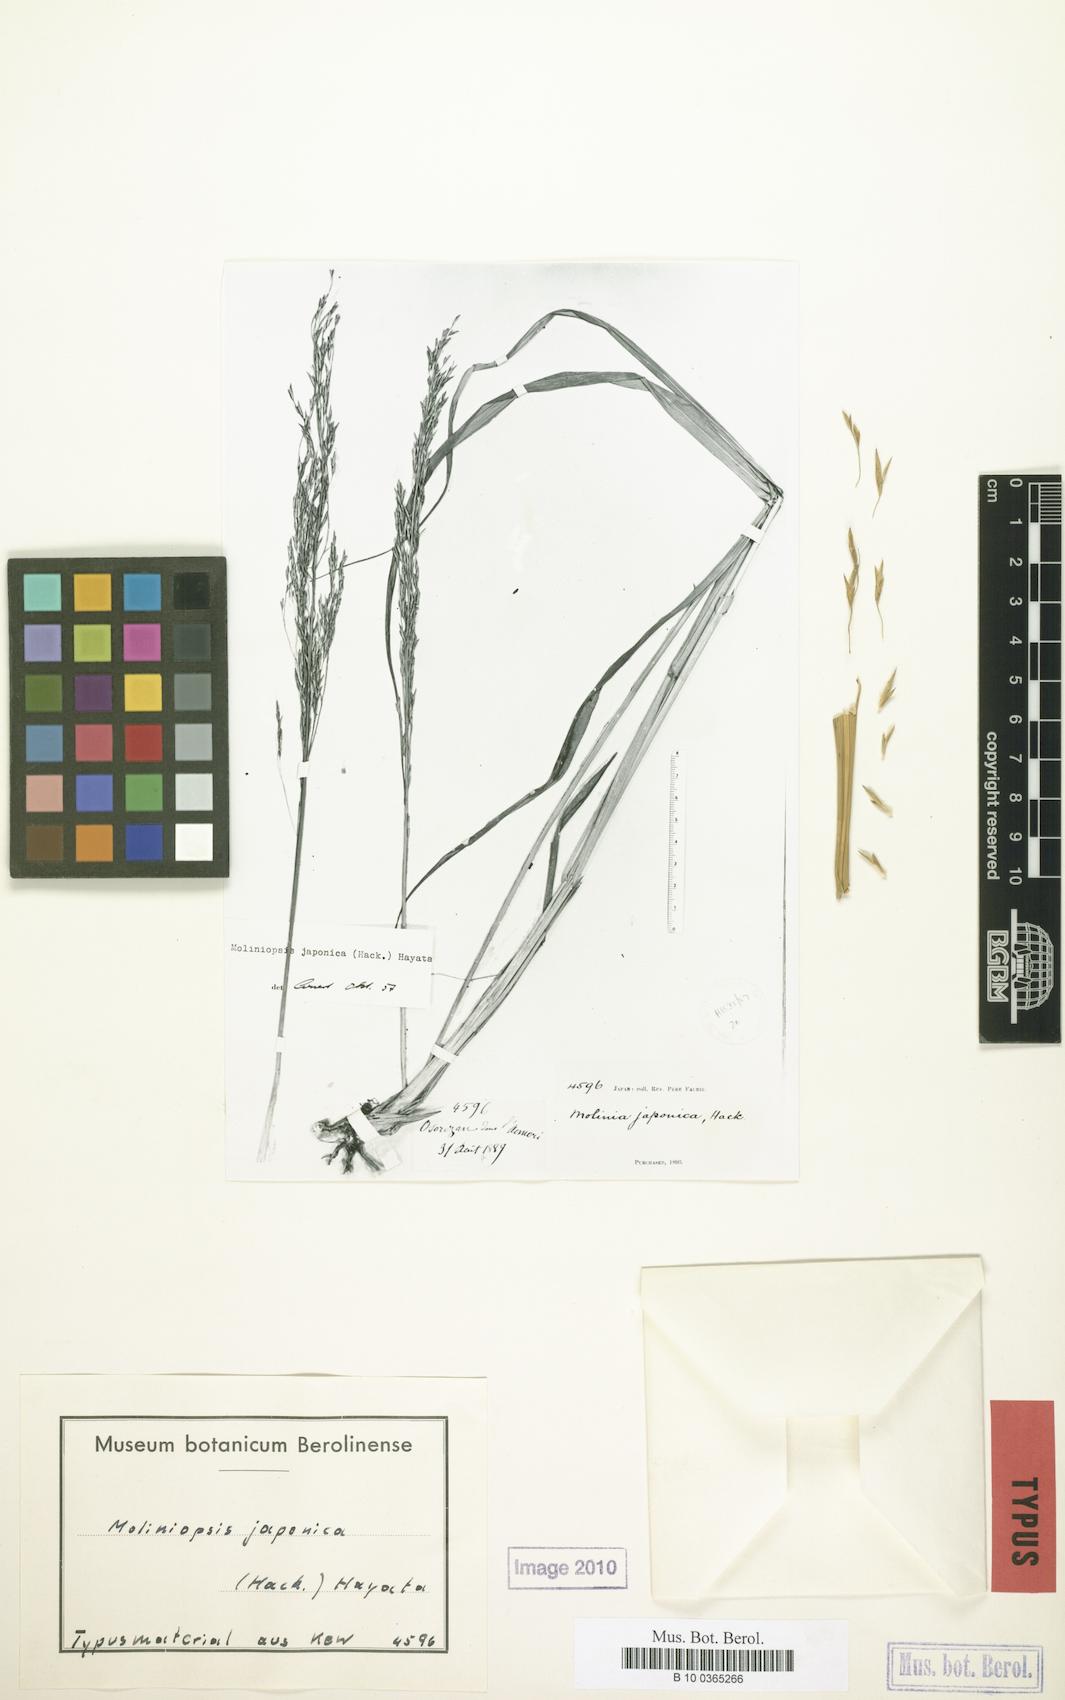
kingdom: Plantae
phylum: Tracheophyta
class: Liliopsida
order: Poales
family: Poaceae
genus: Moliniopsis
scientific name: Moliniopsis japonica
